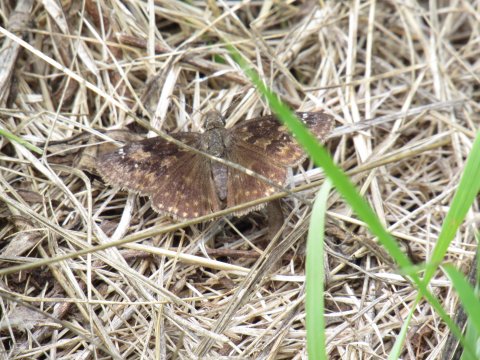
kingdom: Animalia
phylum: Arthropoda
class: Insecta
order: Lepidoptera
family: Hesperiidae
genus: Gesta
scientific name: Gesta
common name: Wild Indigo Duskywing
